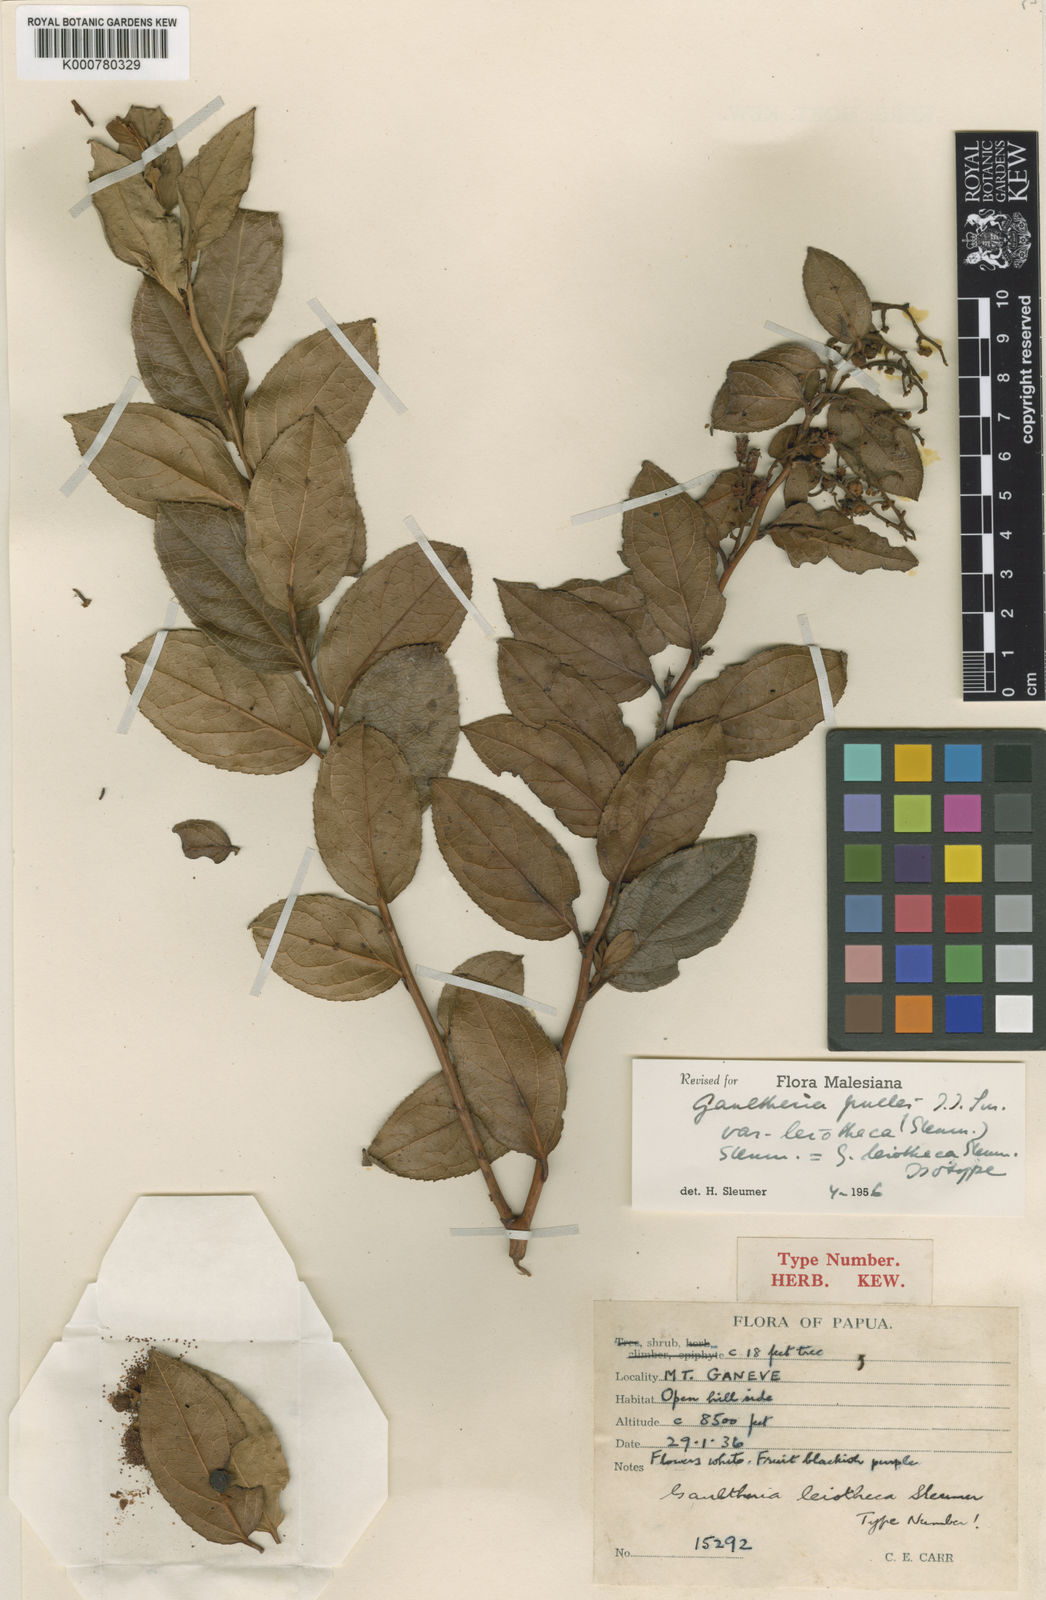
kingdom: Plantae
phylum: Tracheophyta
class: Magnoliopsida
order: Ericales
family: Ericaceae
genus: Gaultheria
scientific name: Gaultheria pullei
